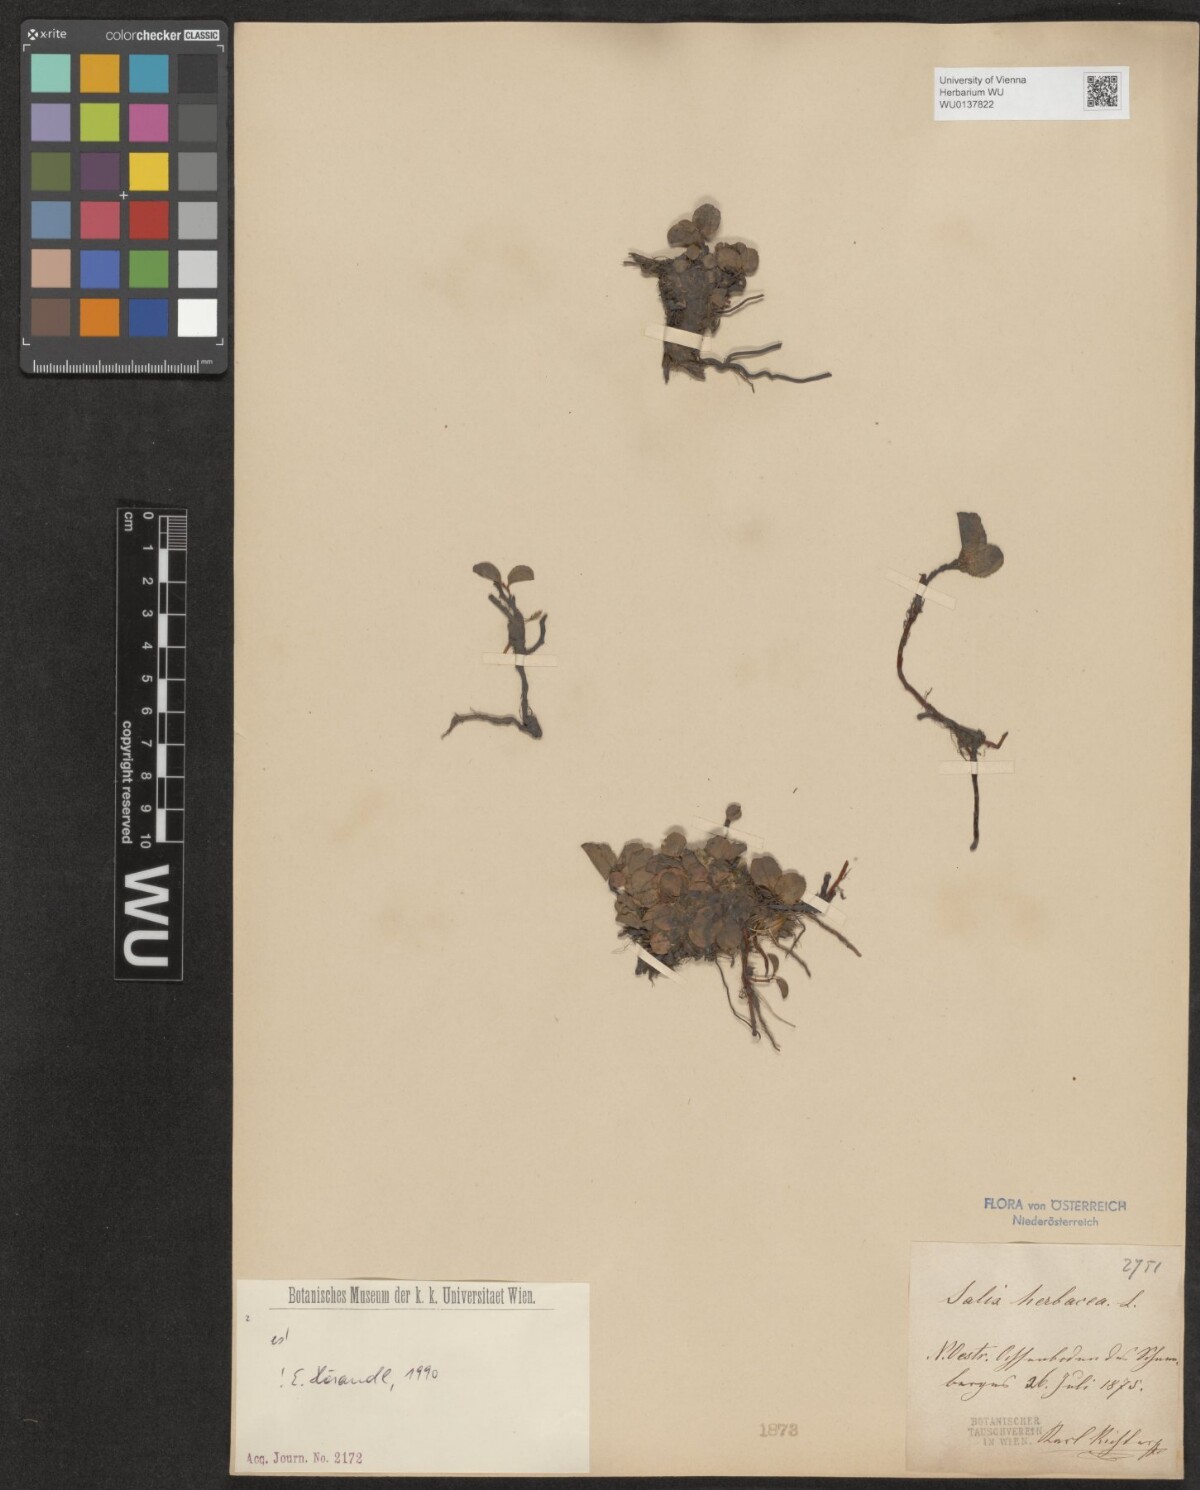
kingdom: Plantae
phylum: Tracheophyta
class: Magnoliopsida
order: Malpighiales
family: Salicaceae
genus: Salix
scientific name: Salix herbacea
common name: Dwarf willow
